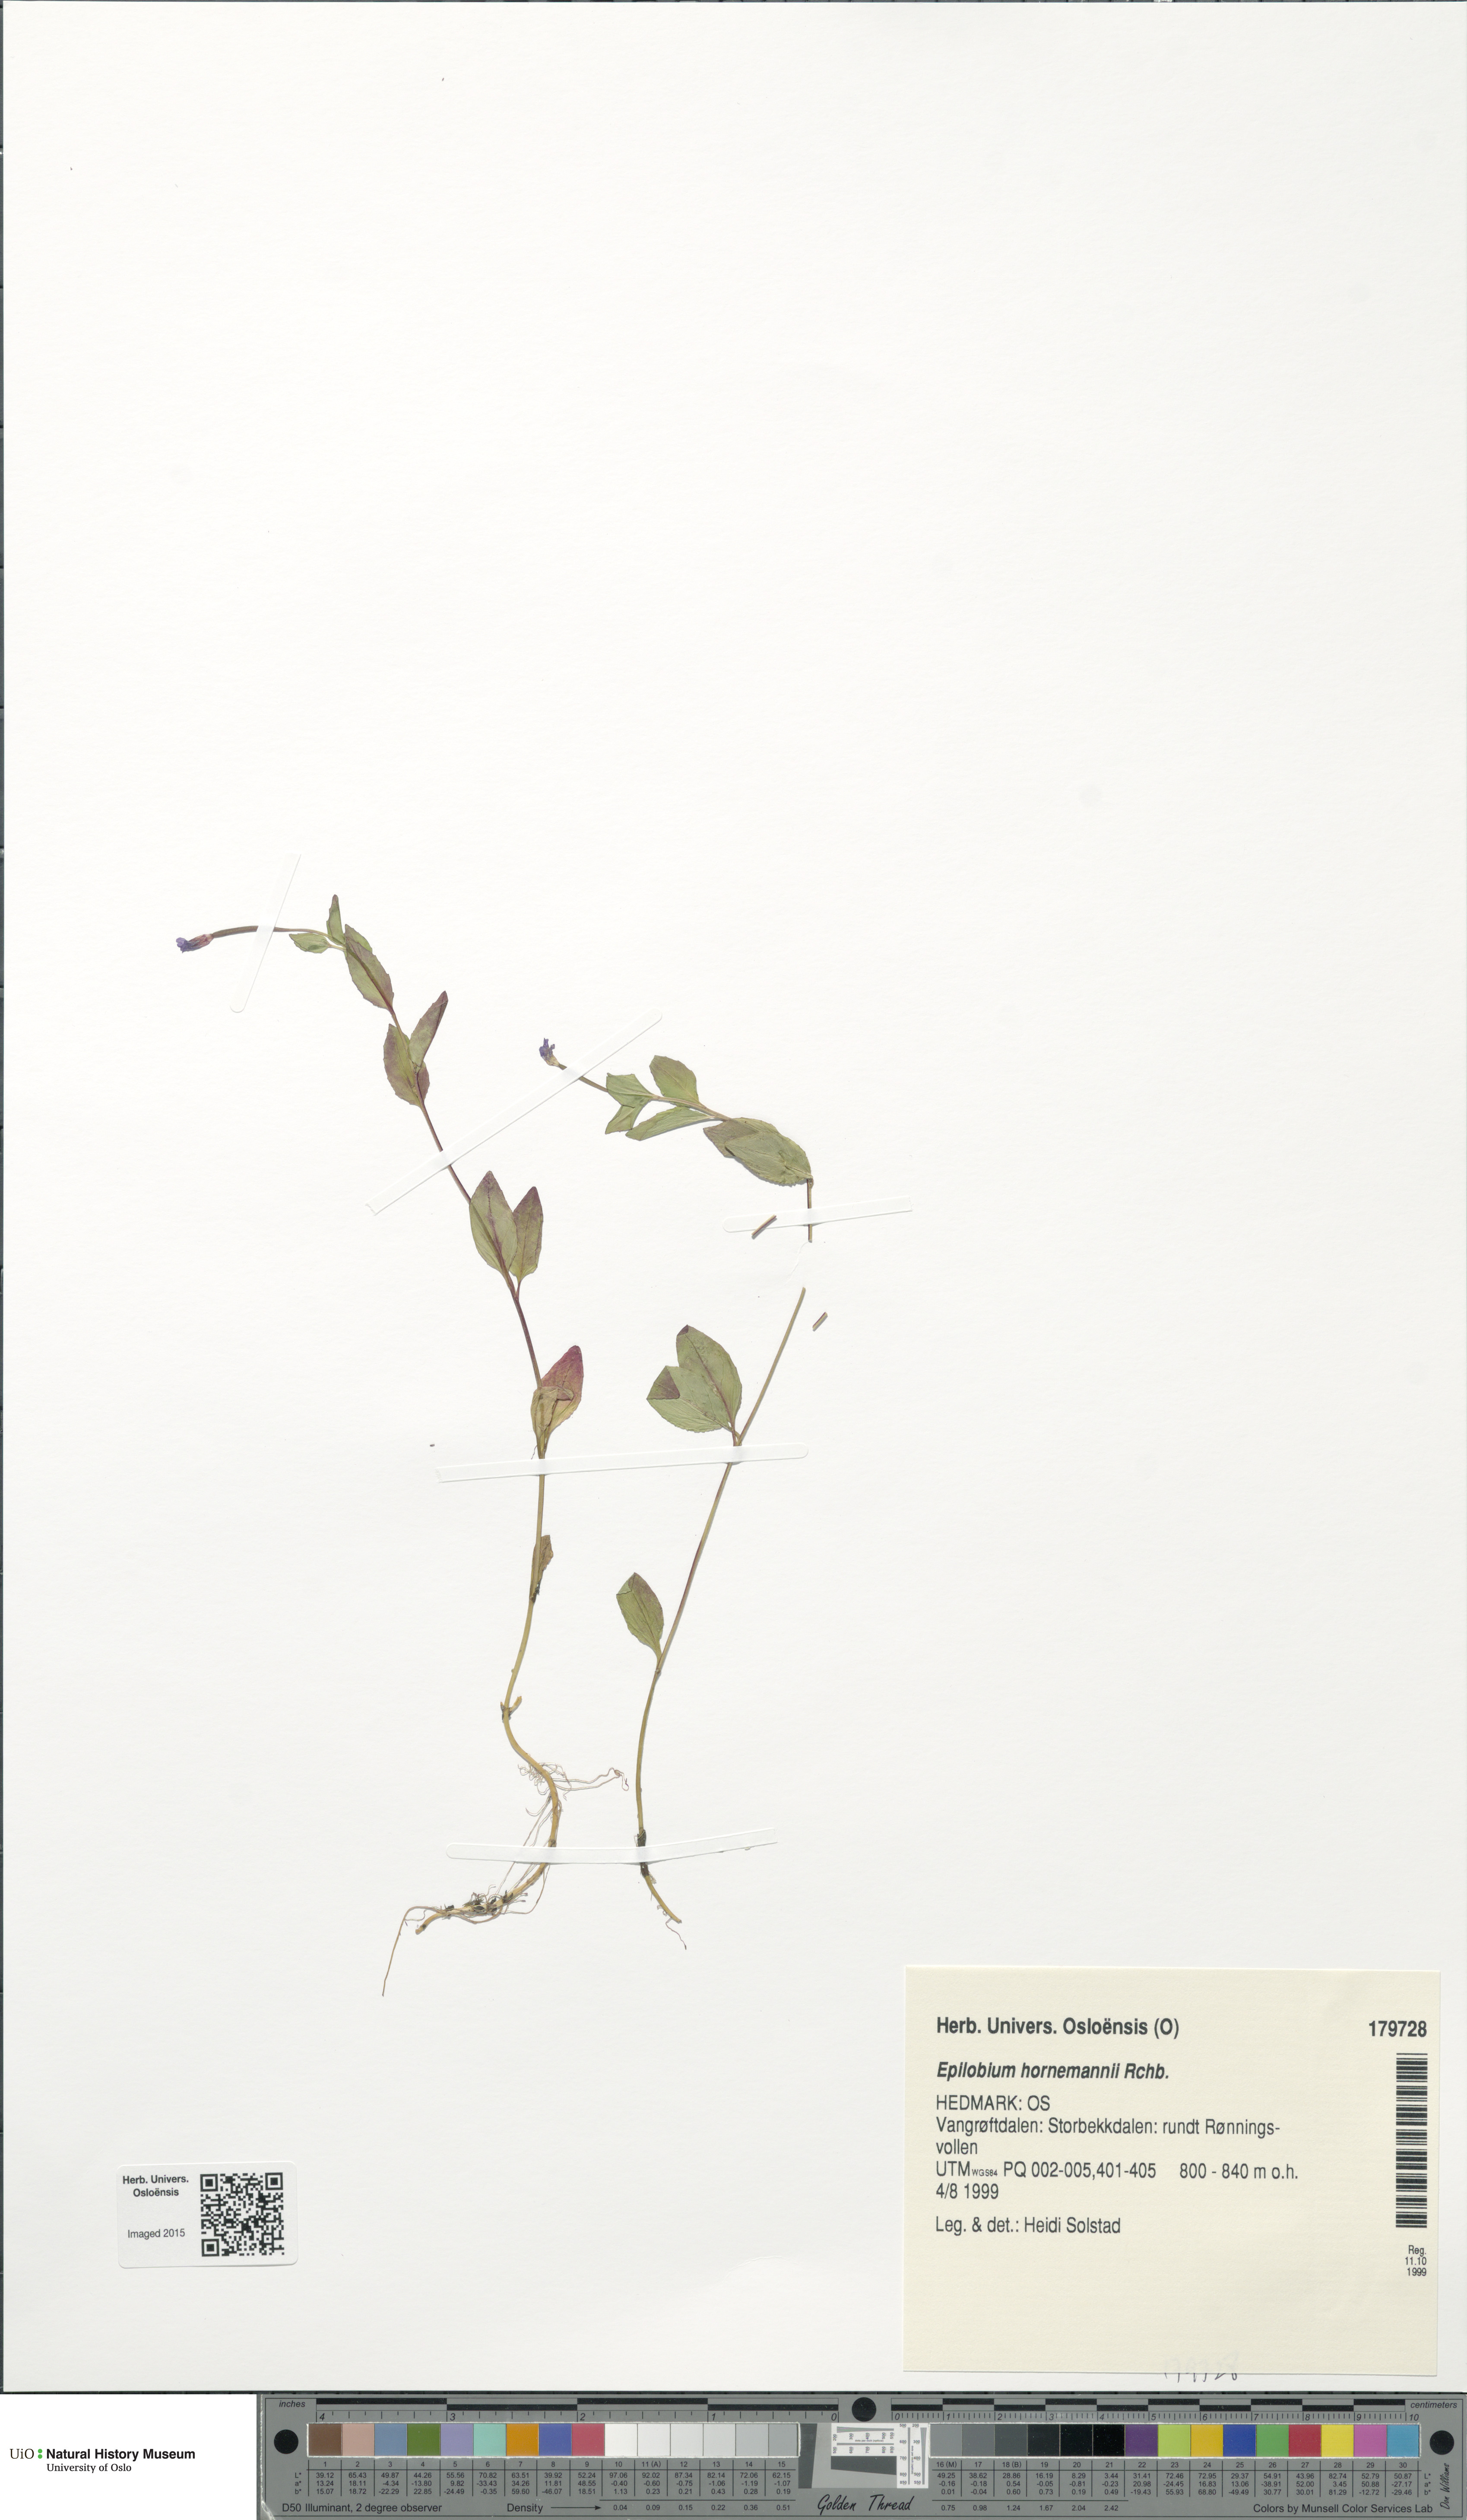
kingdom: Plantae
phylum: Tracheophyta
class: Magnoliopsida
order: Myrtales
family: Onagraceae
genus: Epilobium
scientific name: Epilobium hornemannii
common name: Hornemann's willowherb
